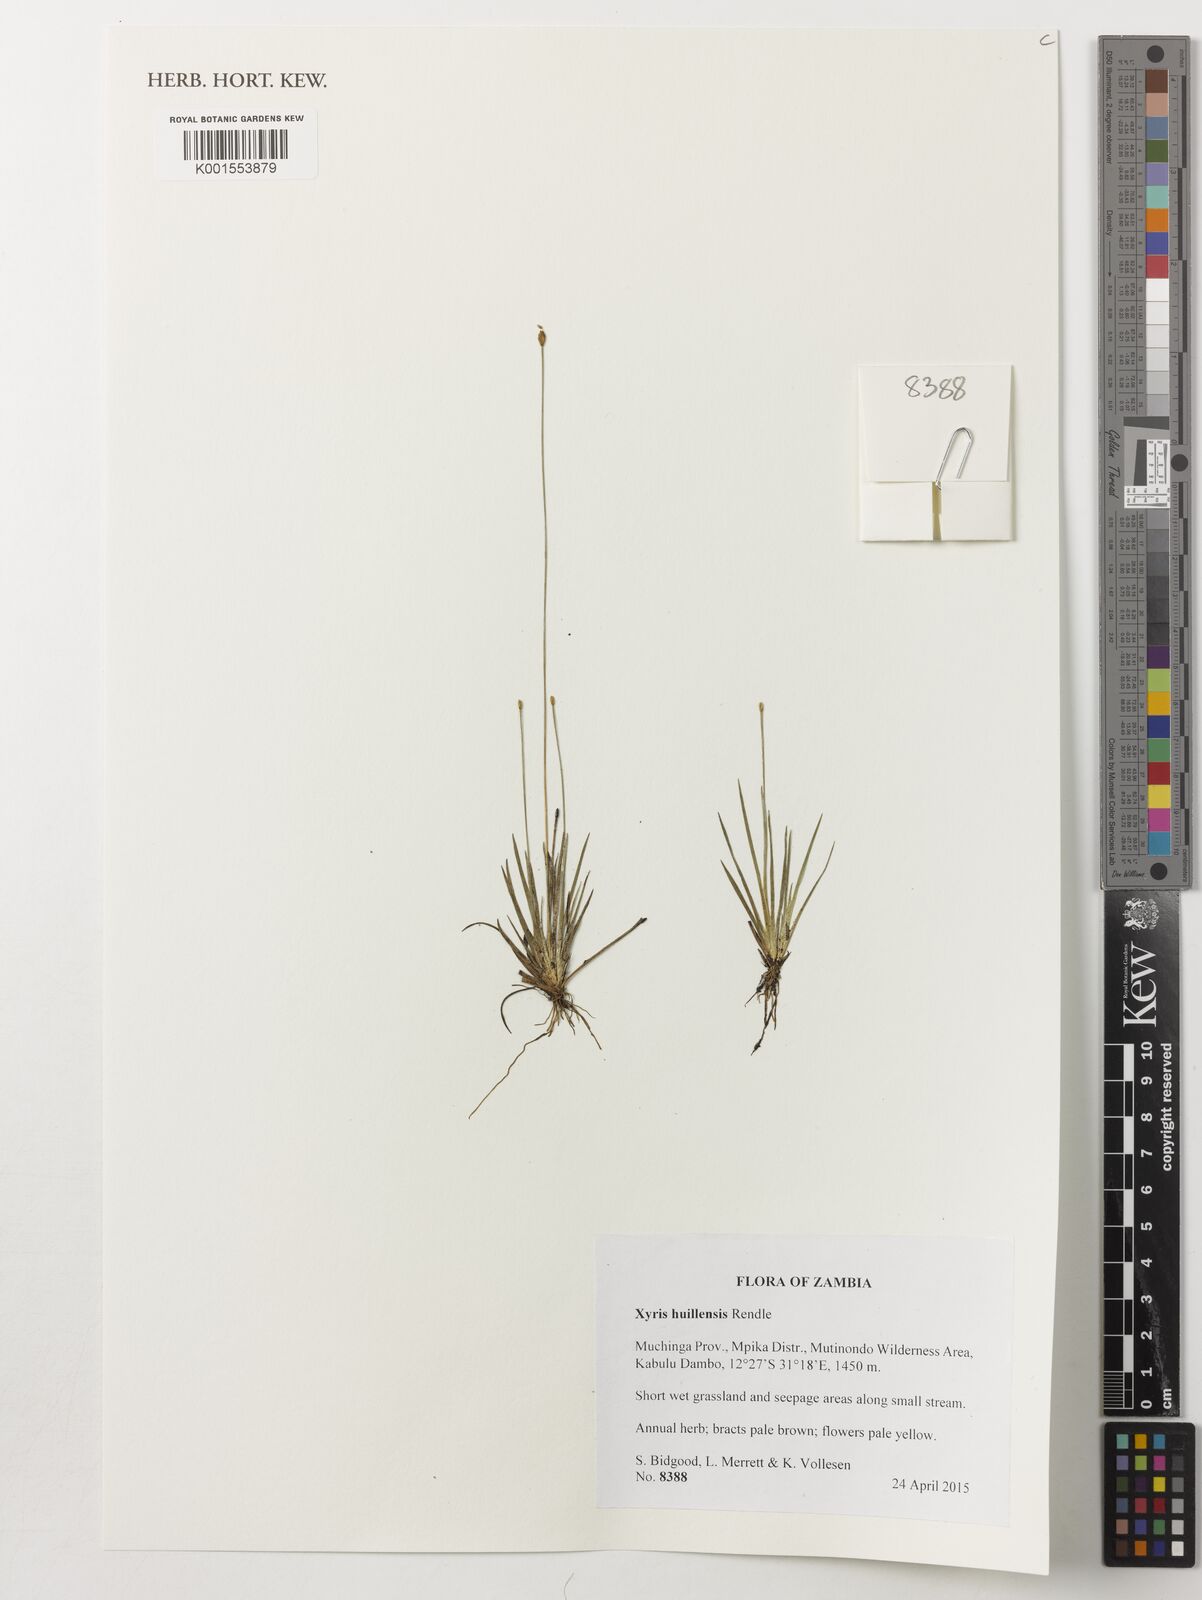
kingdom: Plantae
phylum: Tracheophyta
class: Liliopsida
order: Poales
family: Xyridaceae
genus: Xyris
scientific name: Xyris huillensis
